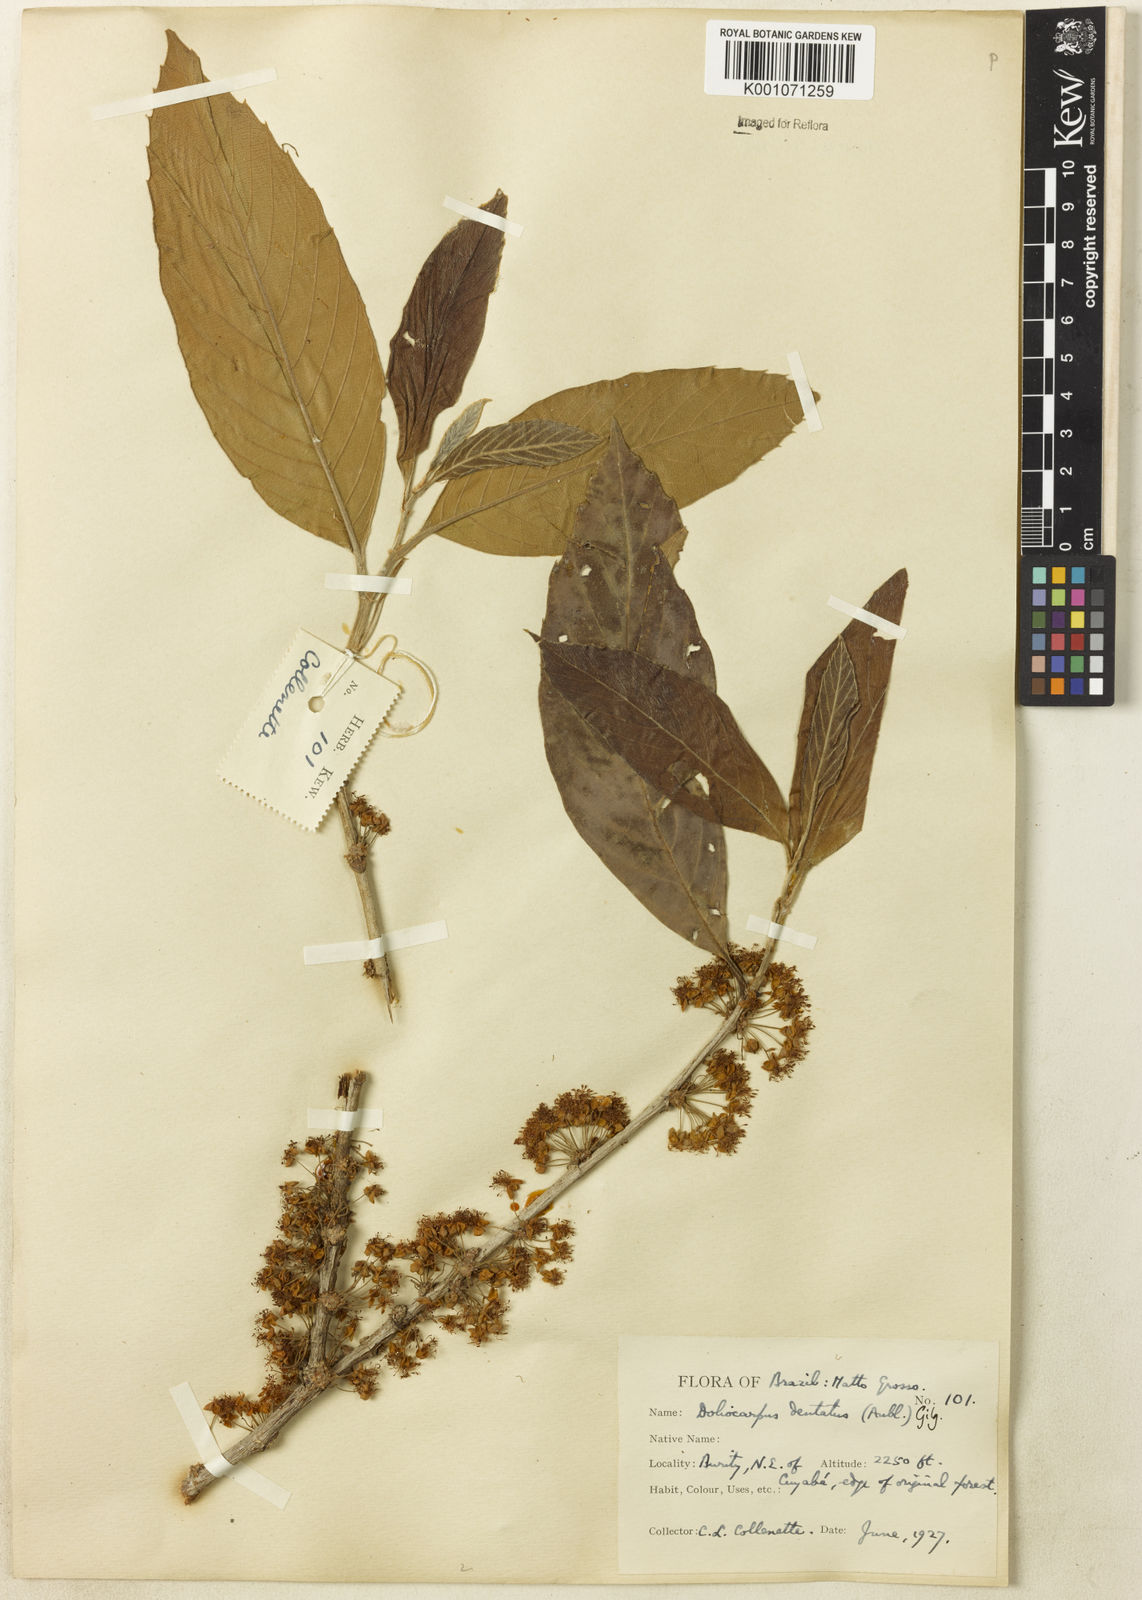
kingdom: Plantae
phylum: Tracheophyta
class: Magnoliopsida
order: Dilleniales
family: Dilleniaceae
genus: Doliocarpus
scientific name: Doliocarpus dentatus
